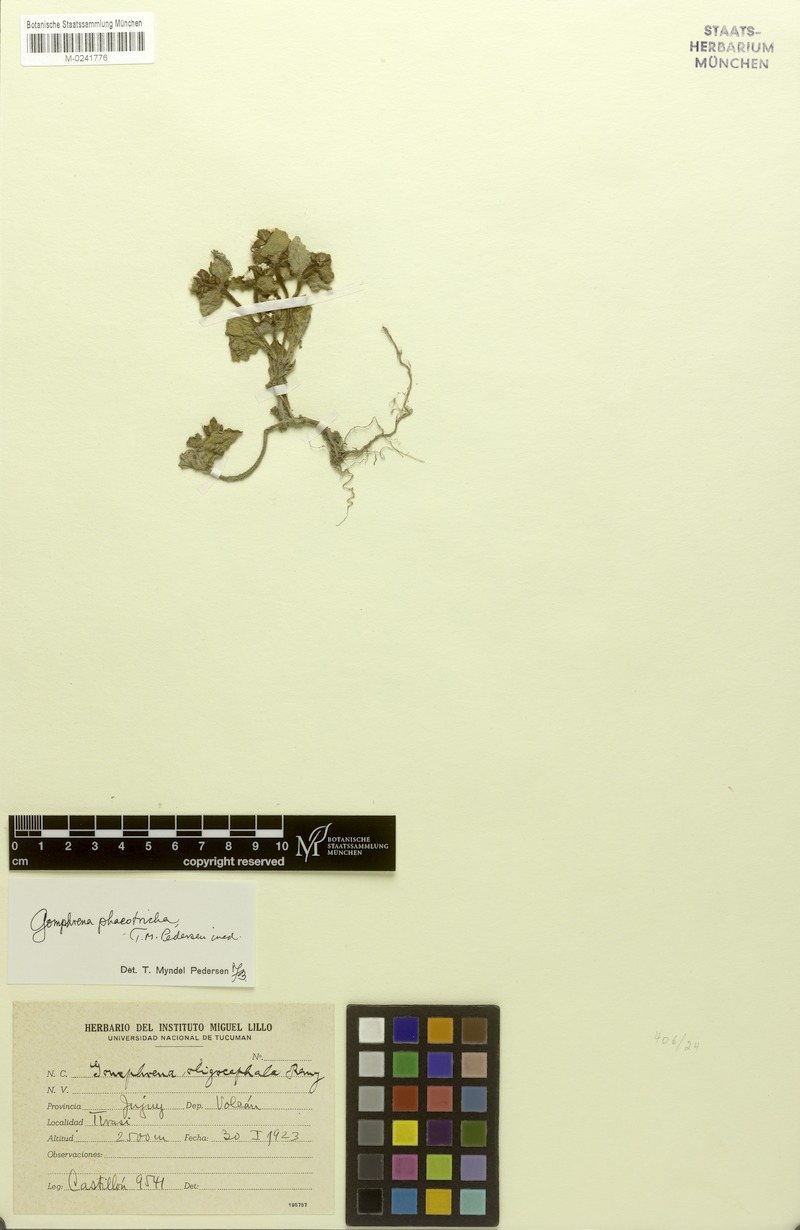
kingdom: Plantae
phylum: Tracheophyta
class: Magnoliopsida
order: Caryophyllales
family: Amaranthaceae
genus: Gomphrena
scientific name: Gomphrena phaeotricha
